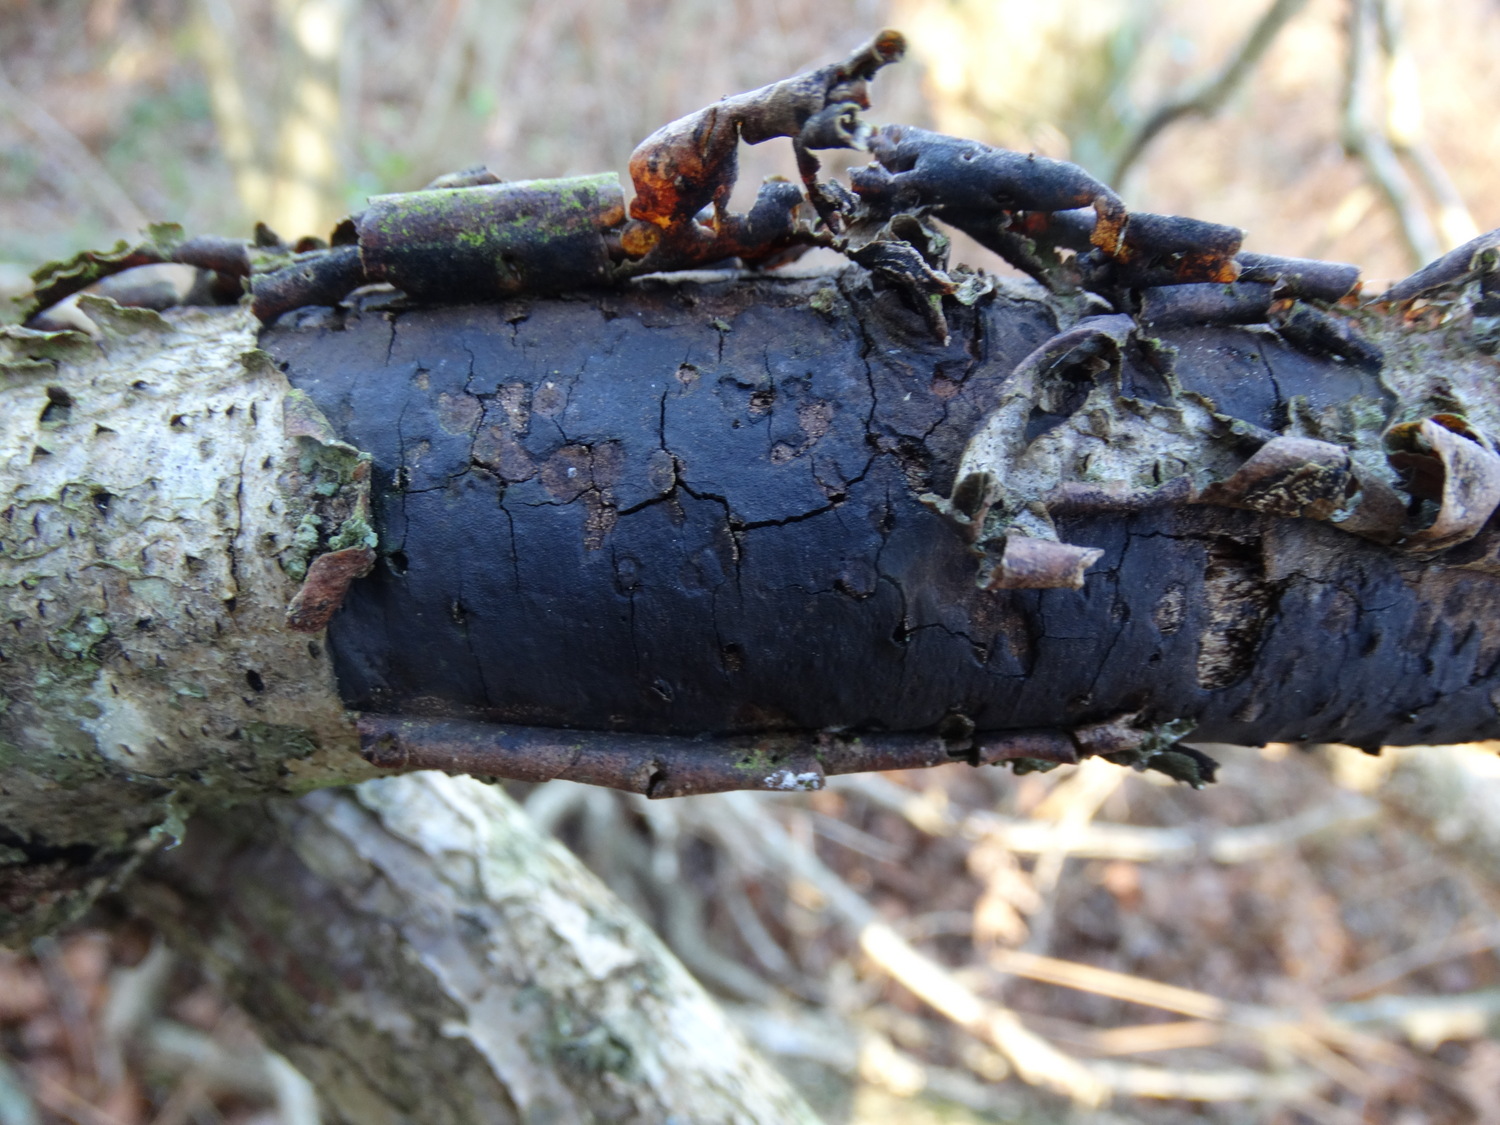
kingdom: Fungi
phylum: Ascomycota
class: Sordariomycetes
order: Xylariales
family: Diatrypaceae
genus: Diatrype
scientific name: Diatrype stigma
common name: udbredt kulskorpe
